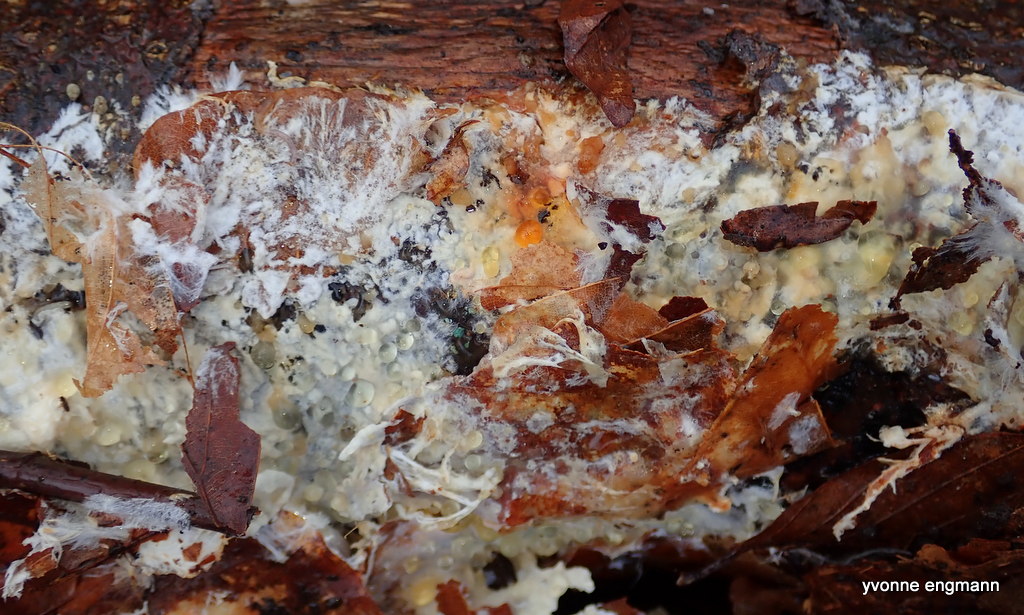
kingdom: Fungi
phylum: Basidiomycota
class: Agaricomycetes
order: Corticiales
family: Corticiaceae
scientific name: Corticiaceae
